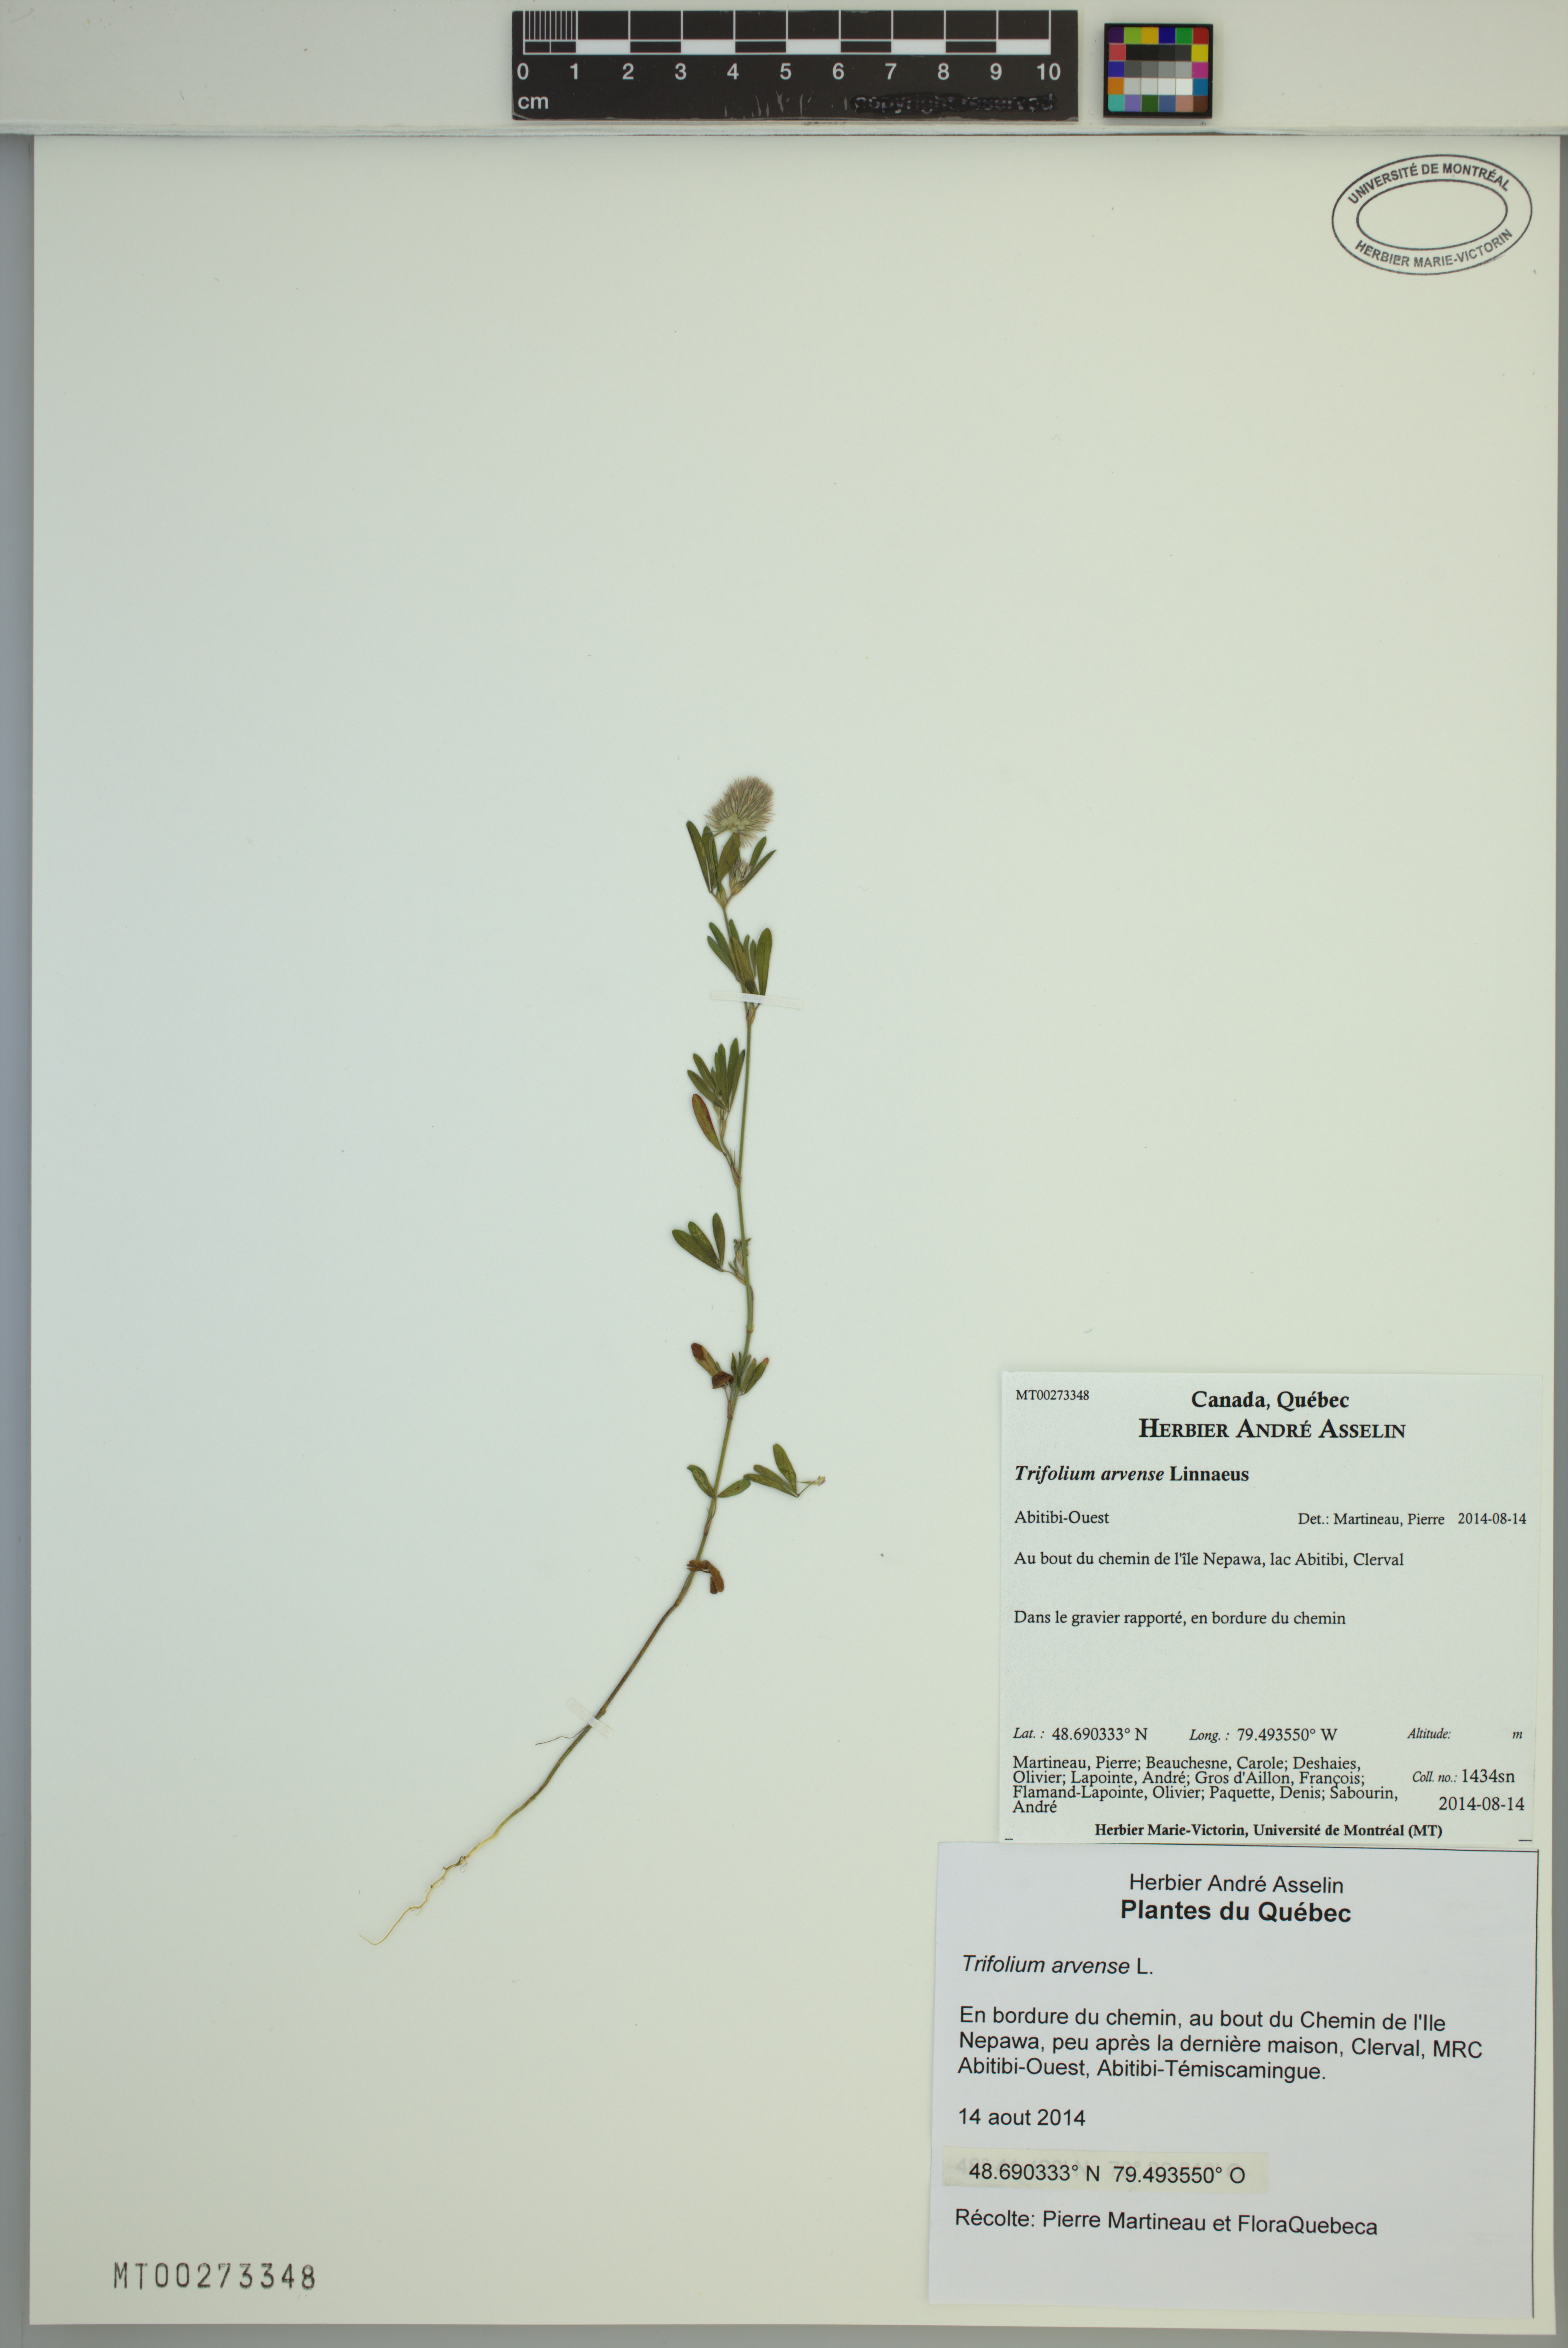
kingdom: Plantae
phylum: Tracheophyta
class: Magnoliopsida
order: Fabales
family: Fabaceae
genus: Trifolium
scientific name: Trifolium arvense
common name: Hare's-foot clover
